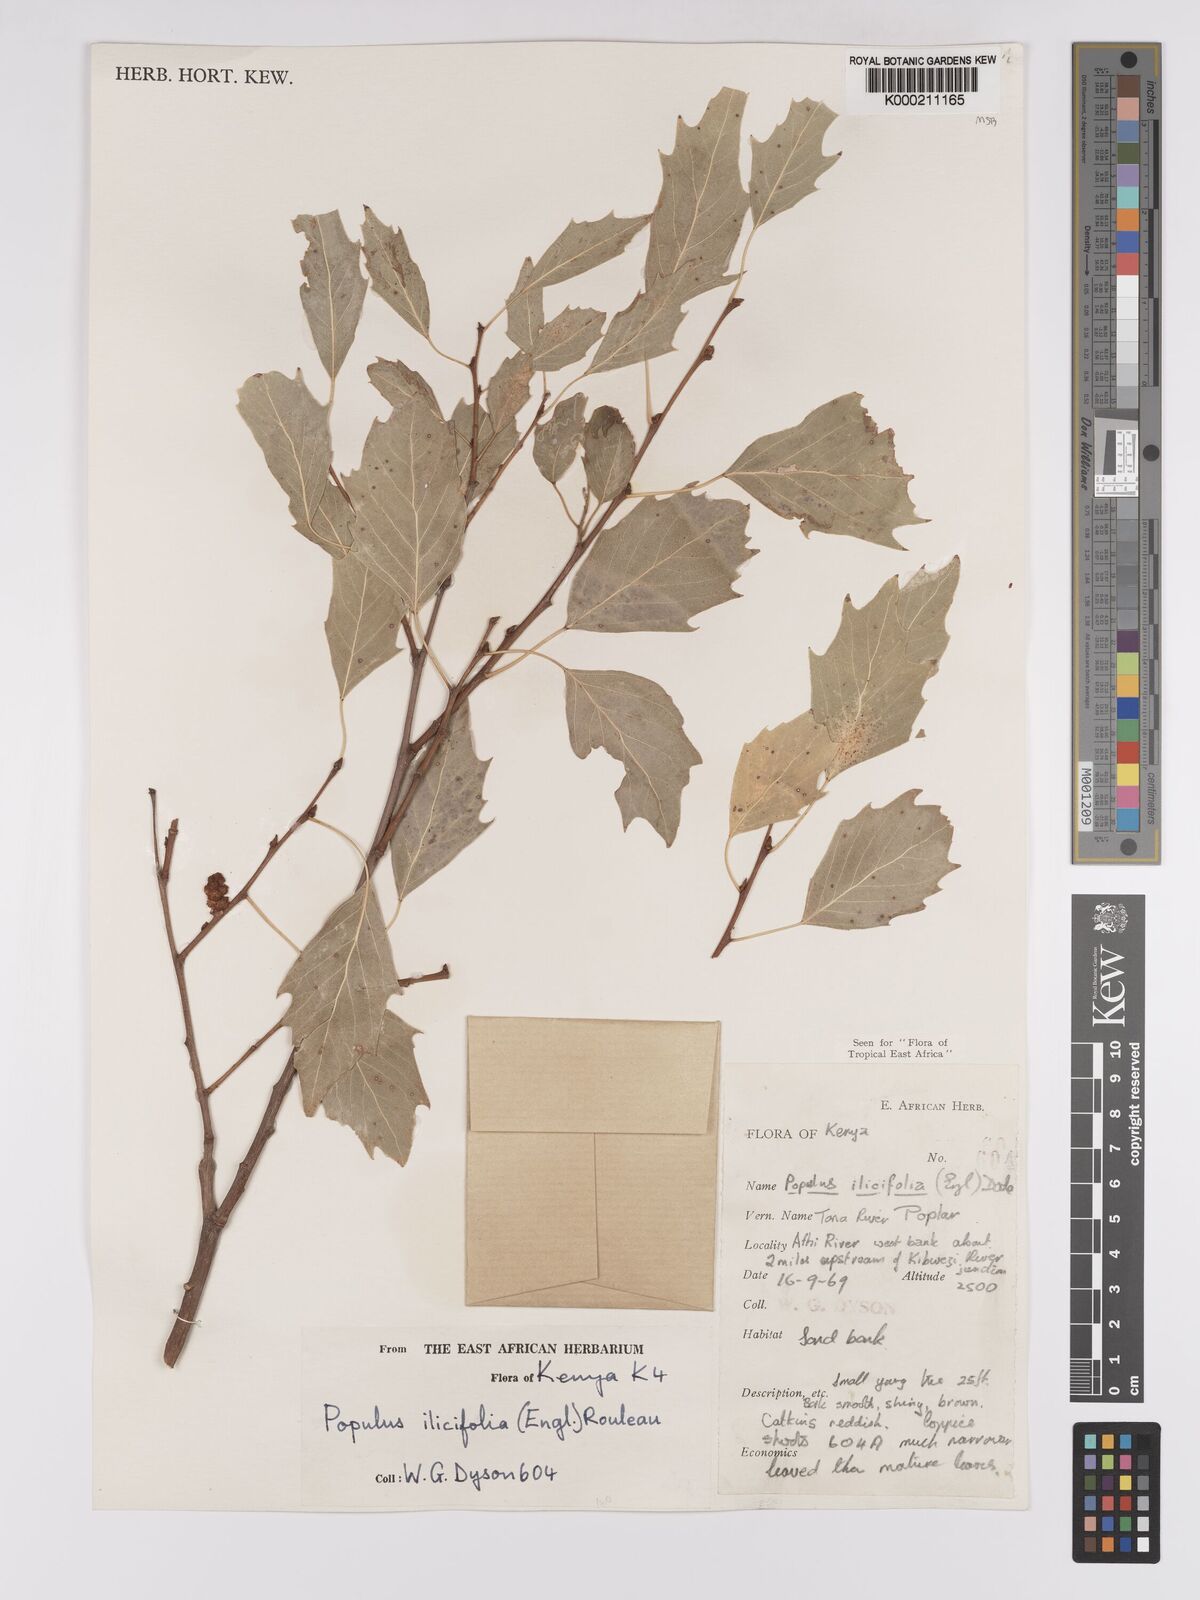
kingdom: Plantae
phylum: Tracheophyta
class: Magnoliopsida
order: Malpighiales
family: Salicaceae
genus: Populus
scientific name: Populus ilicifolia
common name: Tana river poplar
